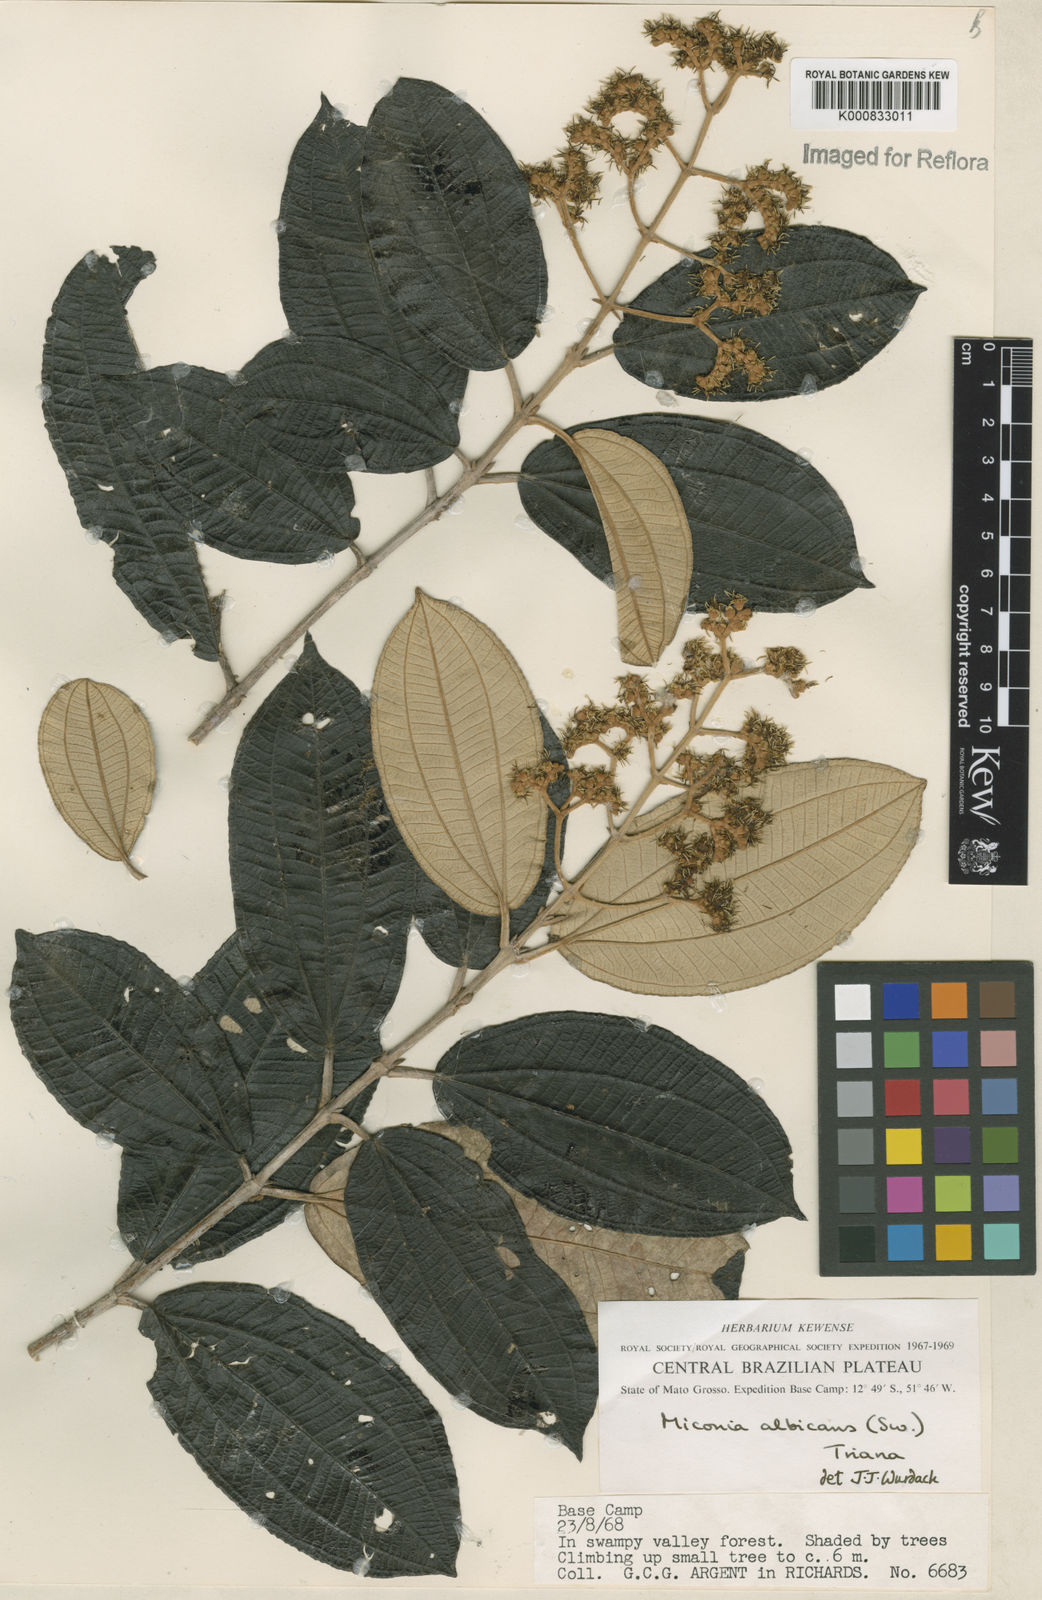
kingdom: Plantae
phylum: Tracheophyta
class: Magnoliopsida
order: Myrtales
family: Melastomataceae
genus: Miconia
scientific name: Miconia albicans
